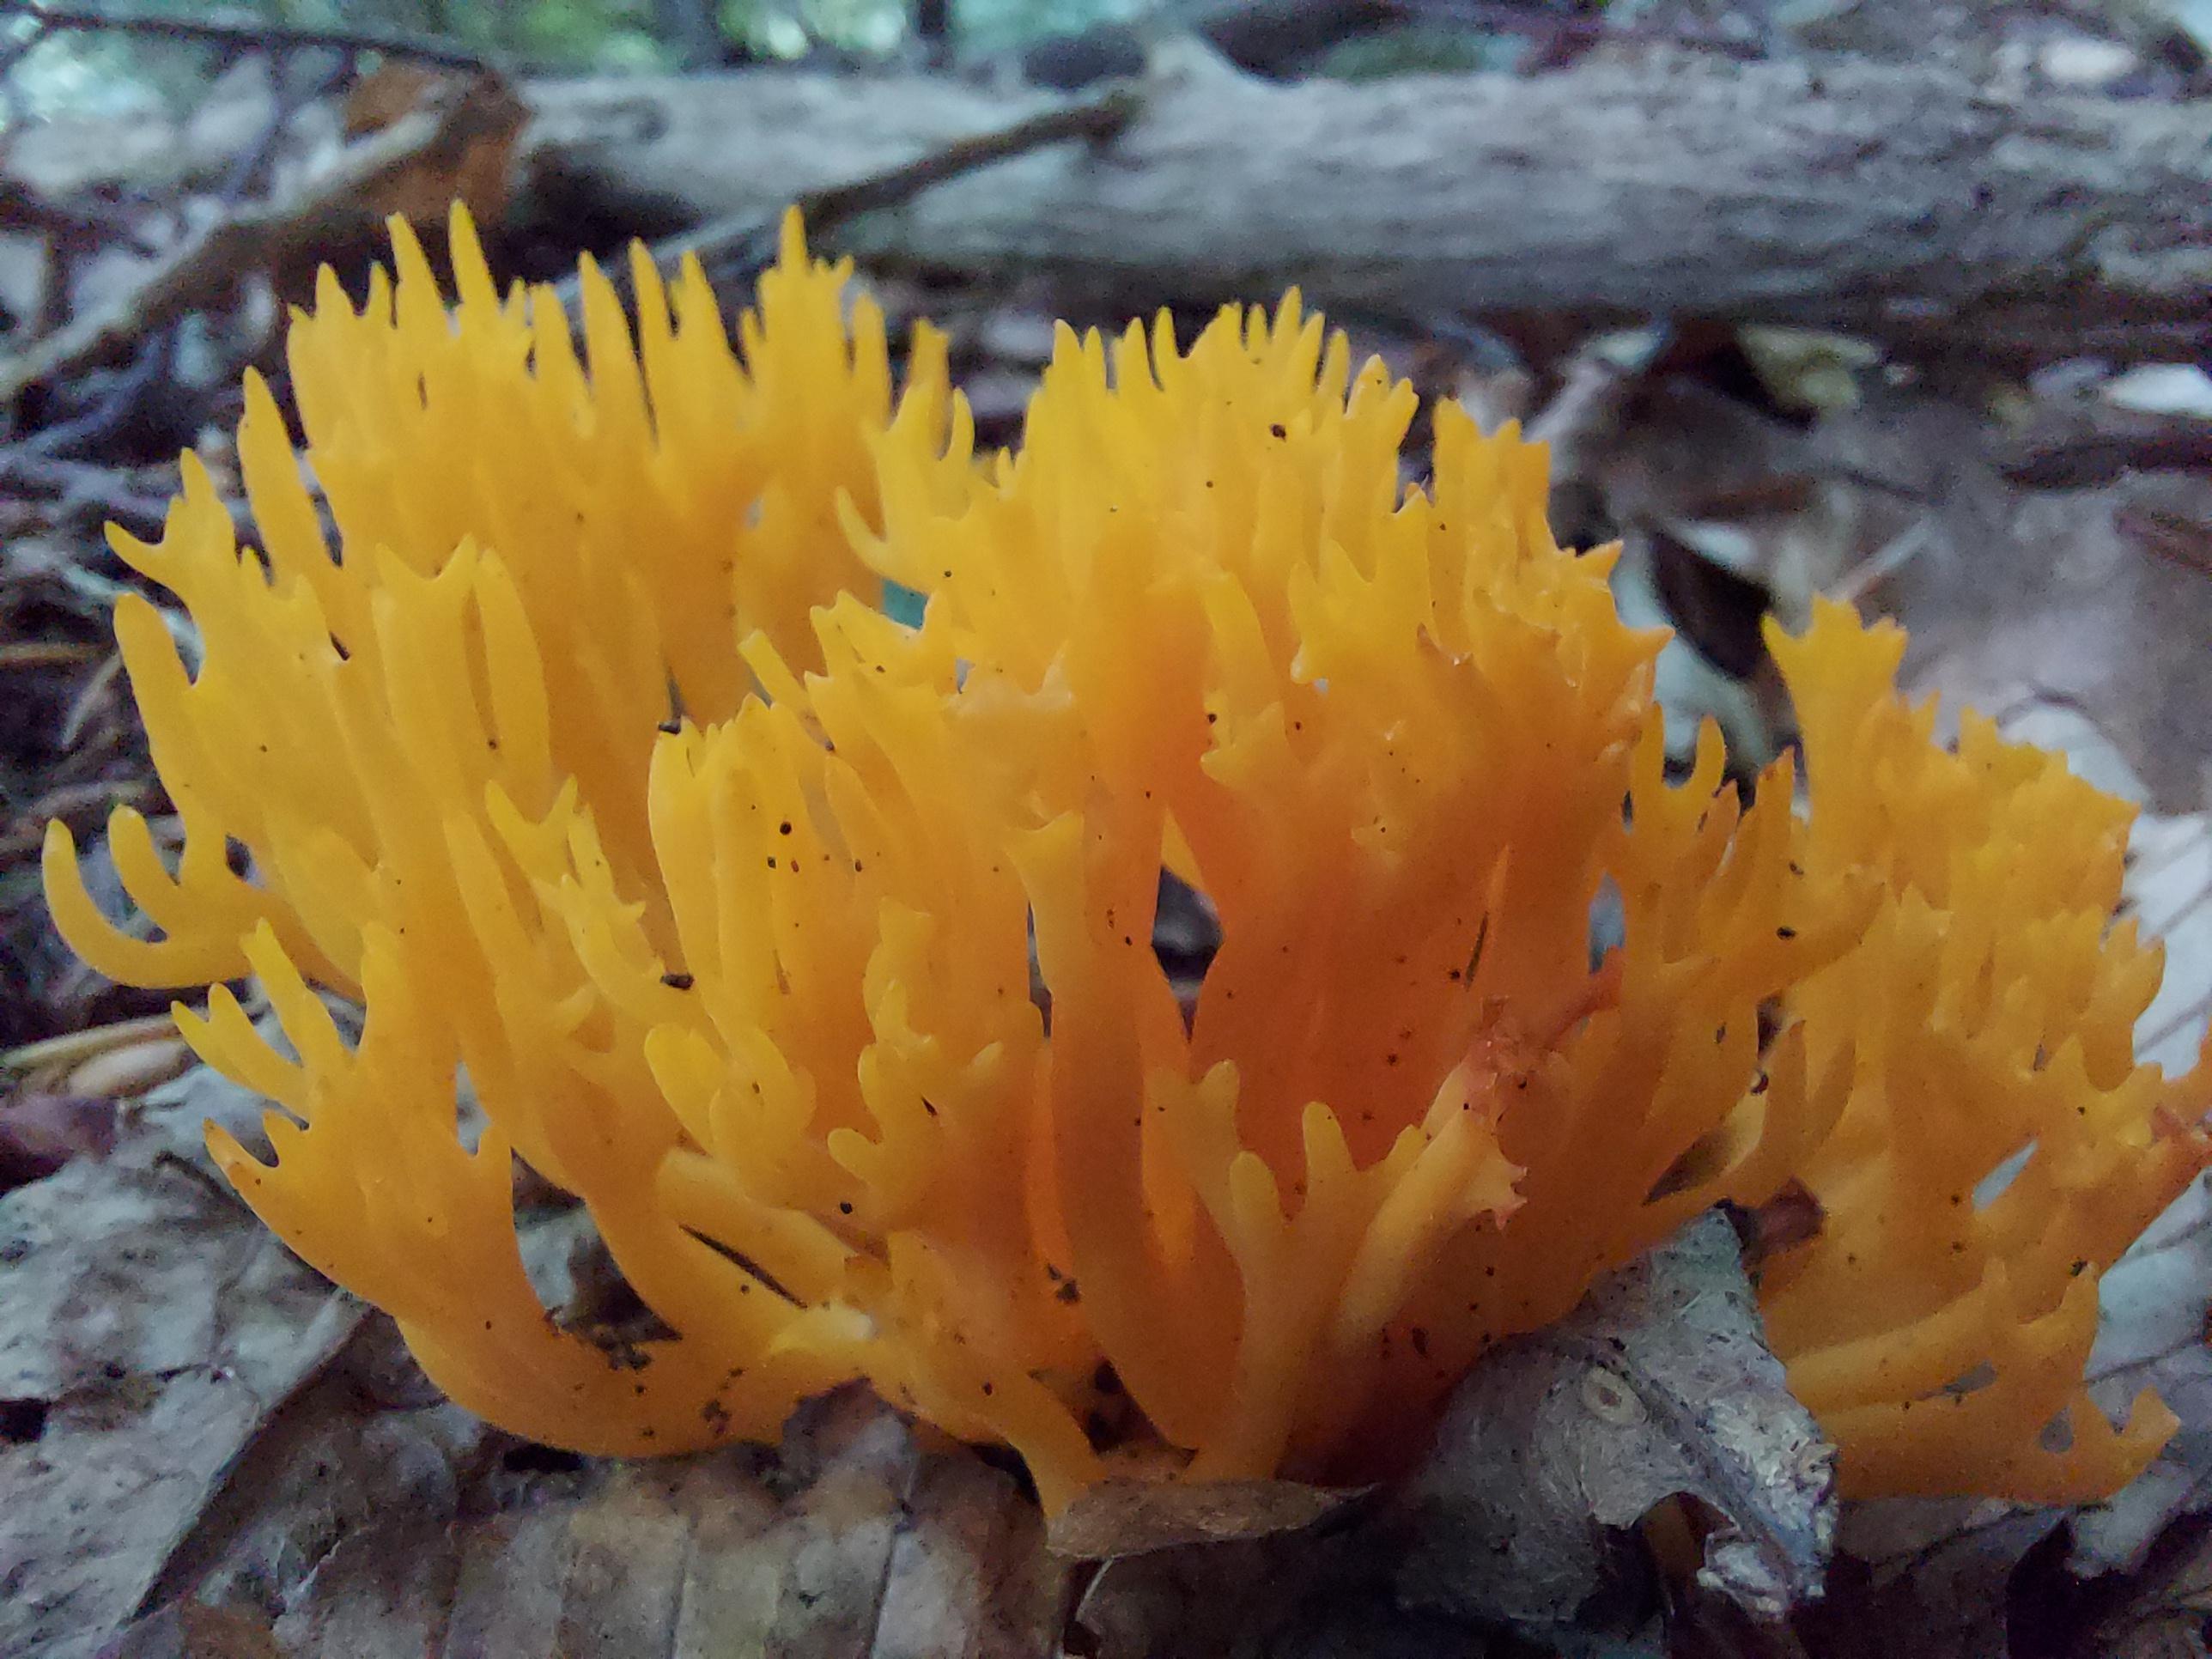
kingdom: Fungi
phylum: Basidiomycota
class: Dacrymycetes
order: Dacrymycetales
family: Dacrymycetaceae
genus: Calocera
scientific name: Calocera viscosa
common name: almindelig guldgaffel
